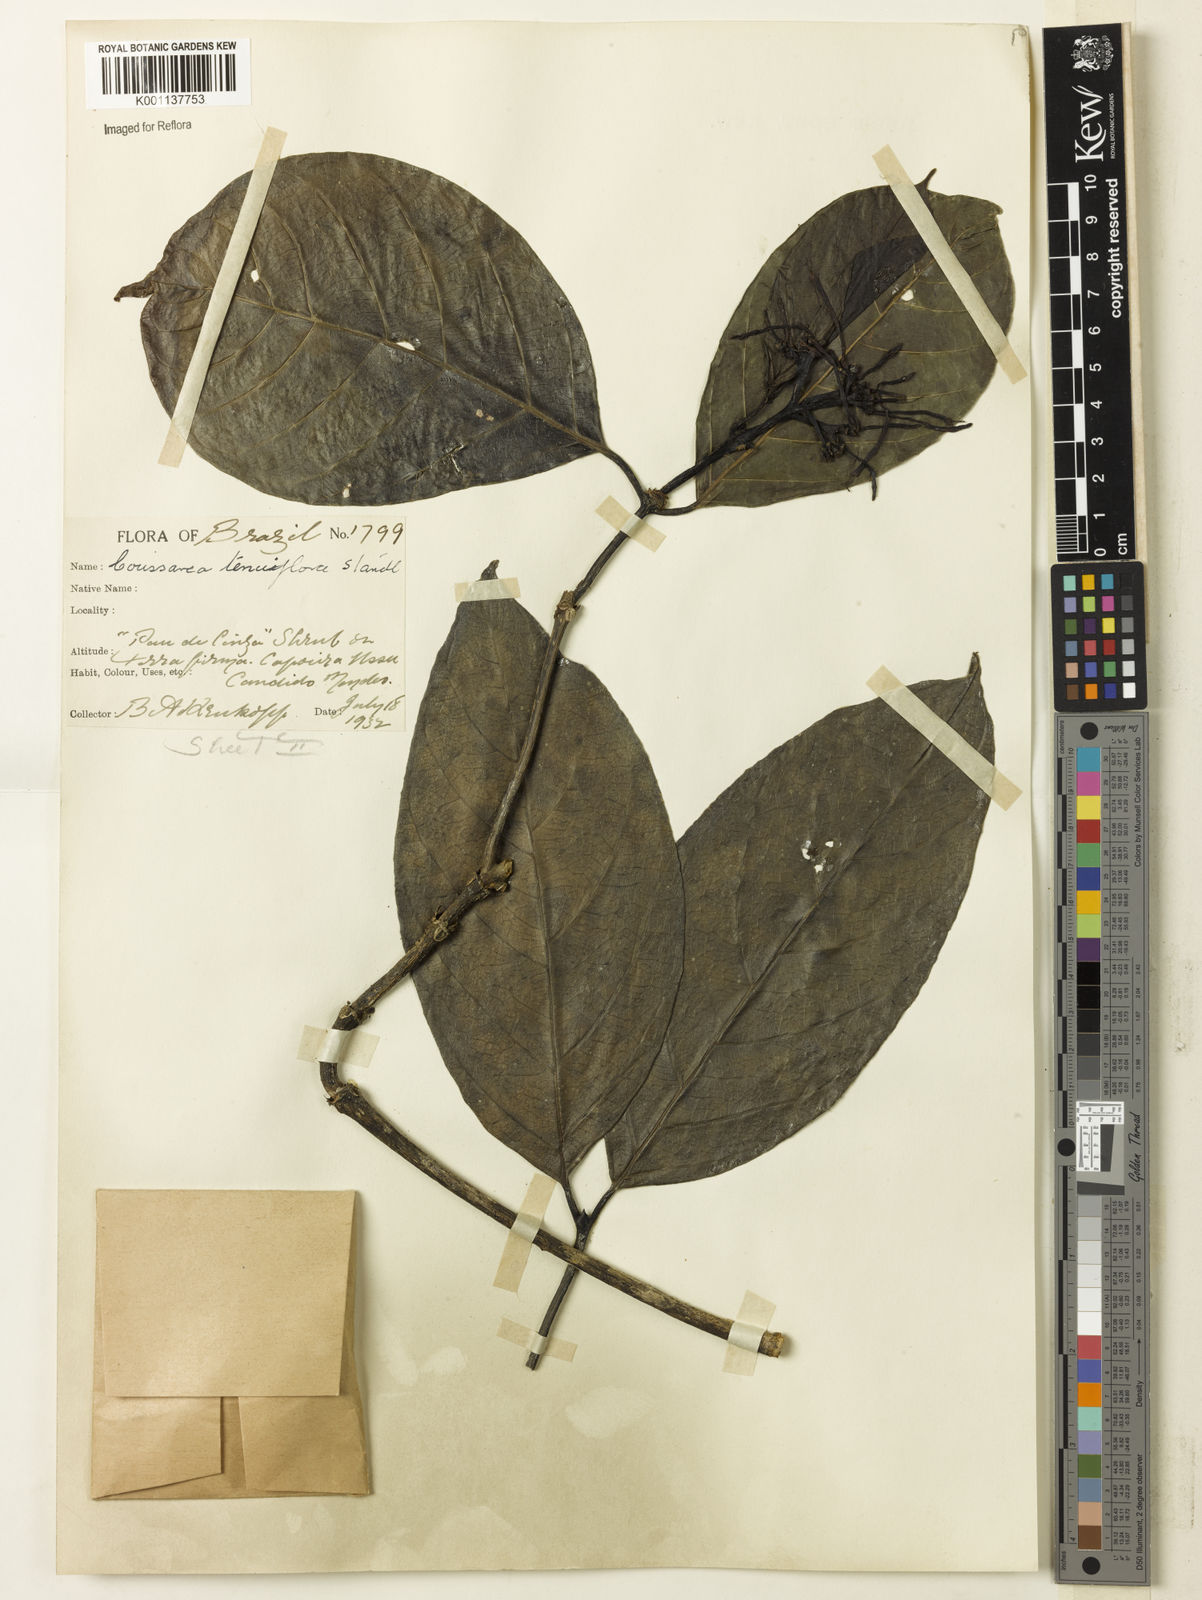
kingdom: Plantae
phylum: Tracheophyta
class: Magnoliopsida
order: Gentianales
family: Rubiaceae
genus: Coussarea
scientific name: Coussarea tenuiflora
